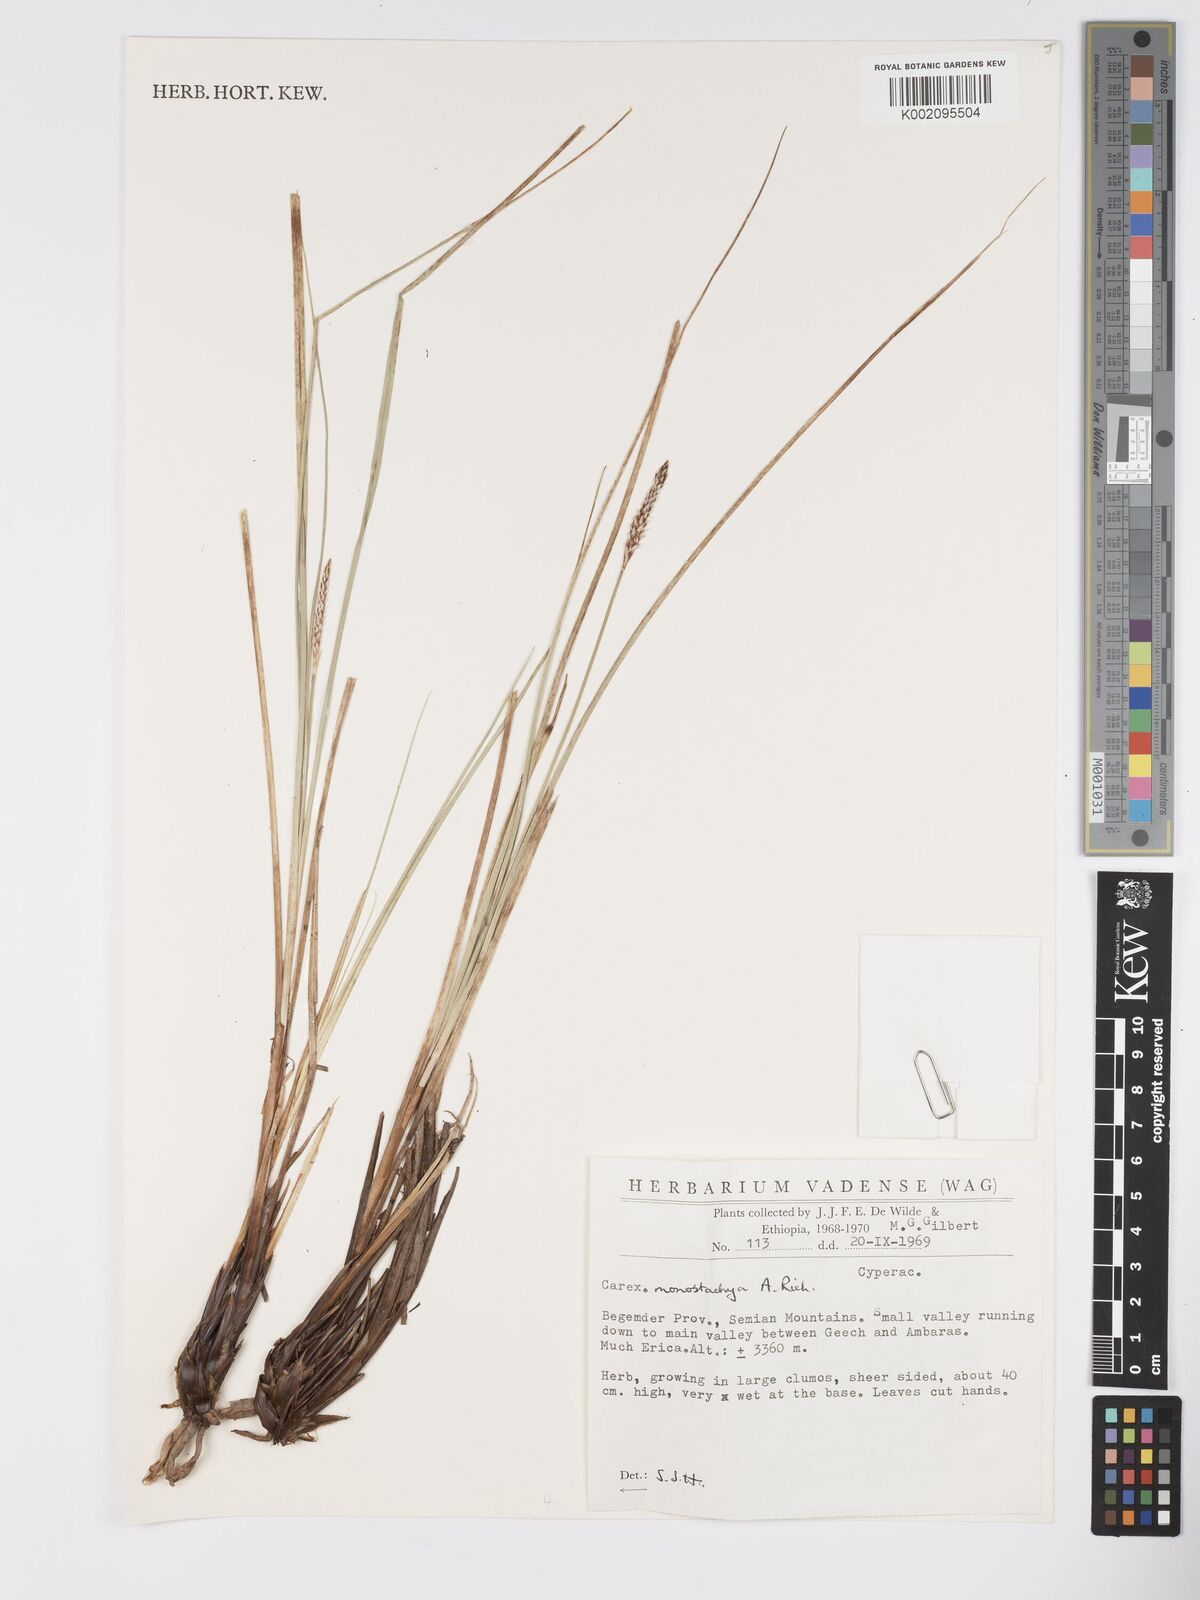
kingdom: Plantae
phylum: Tracheophyta
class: Liliopsida
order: Poales
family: Cyperaceae
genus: Carex
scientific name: Carex monostachya
